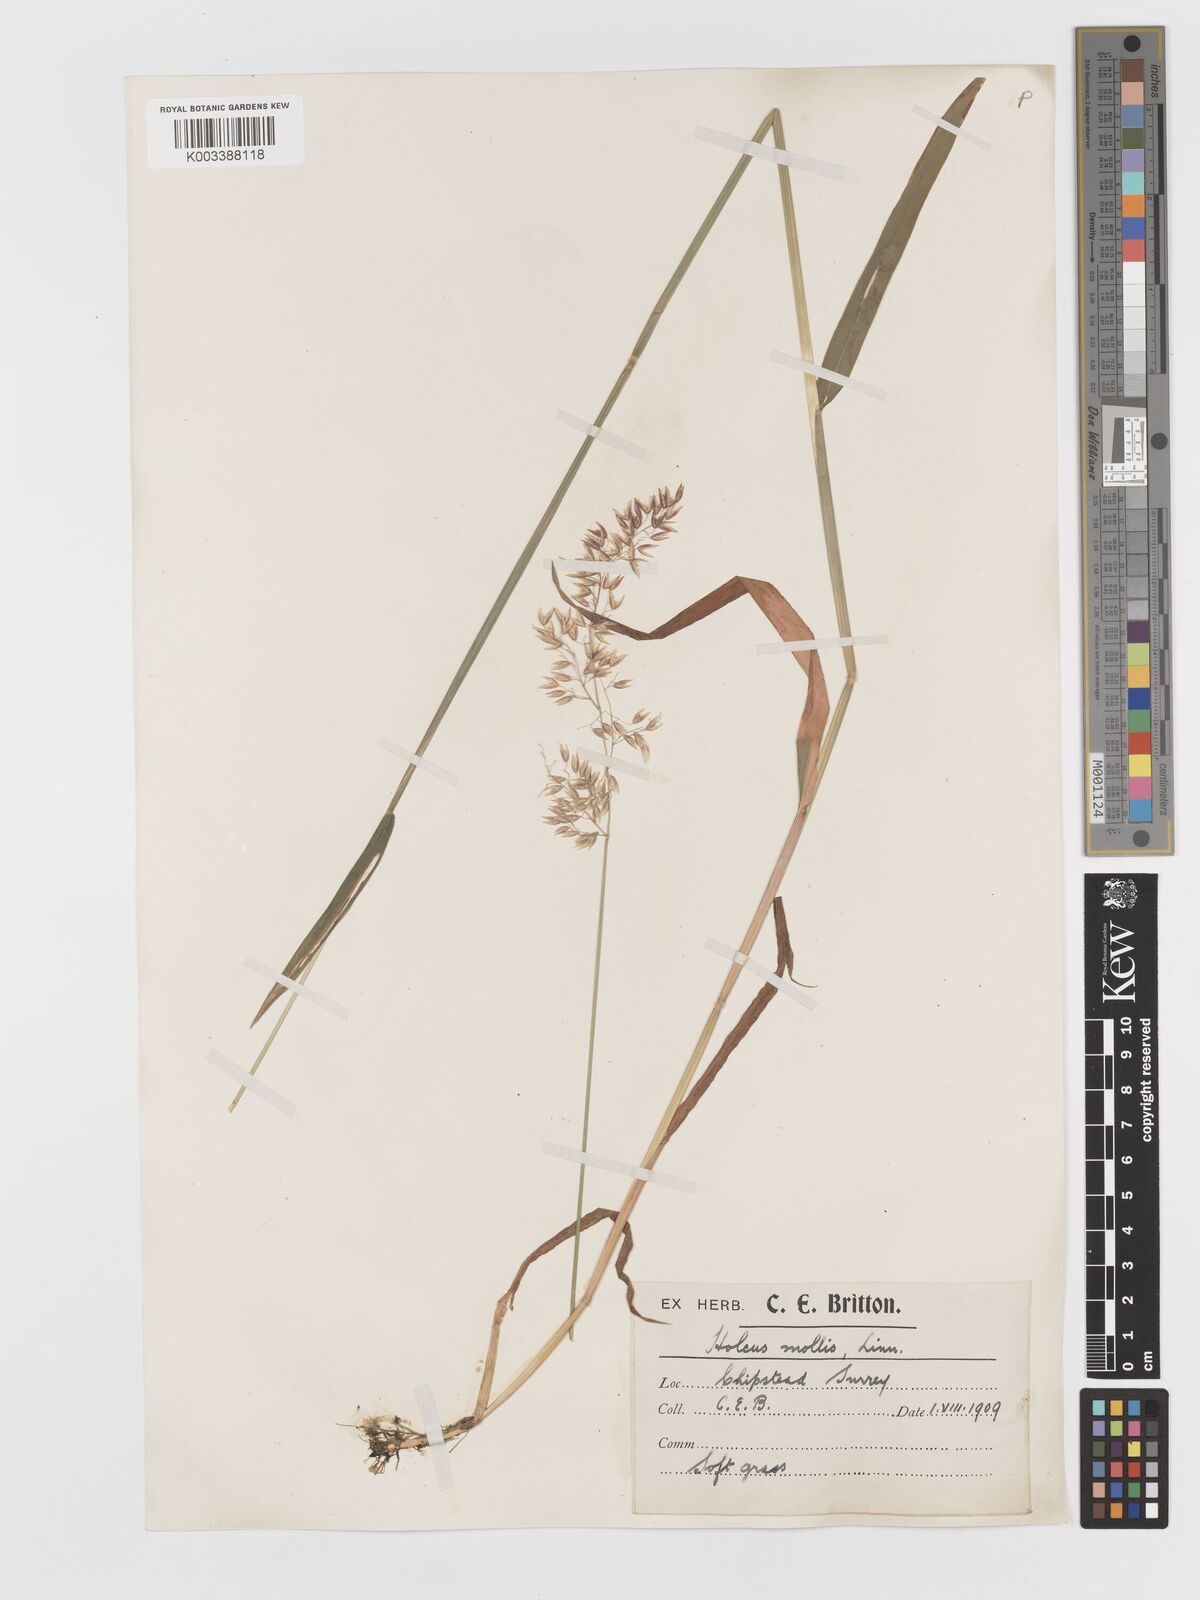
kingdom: Plantae
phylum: Tracheophyta
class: Liliopsida
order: Poales
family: Poaceae
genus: Holcus
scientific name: Holcus mollis
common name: Creeping velvetgrass
